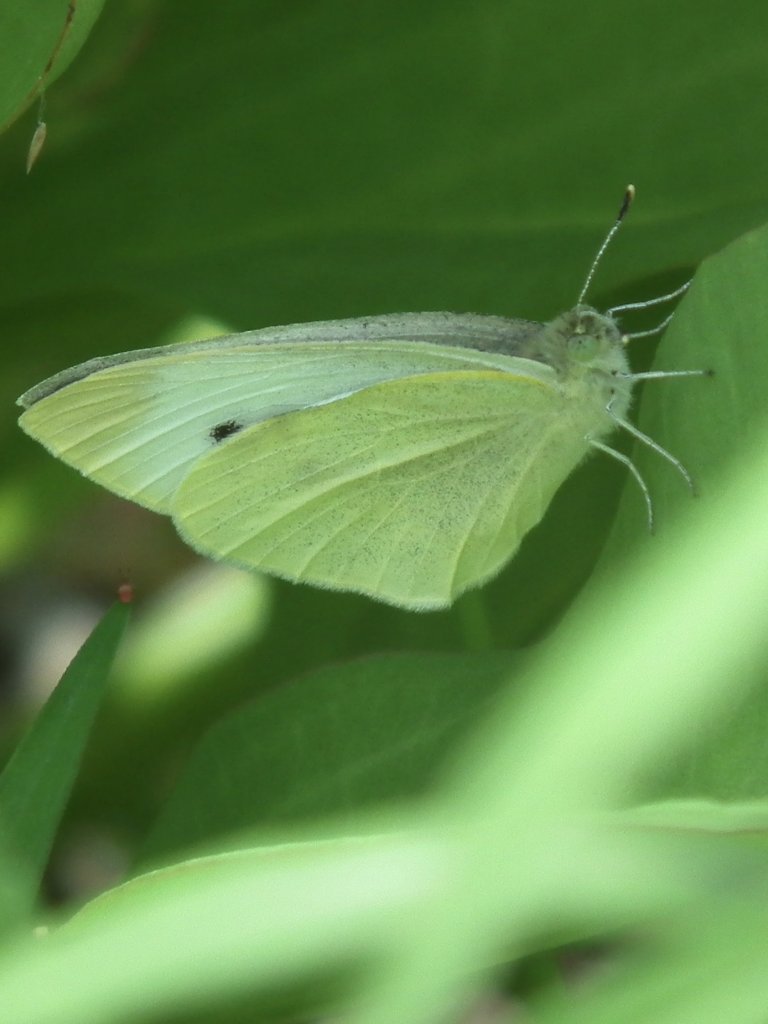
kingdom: Animalia
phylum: Arthropoda
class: Insecta
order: Lepidoptera
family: Pieridae
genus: Pieris
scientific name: Pieris rapae
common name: Cabbage White
